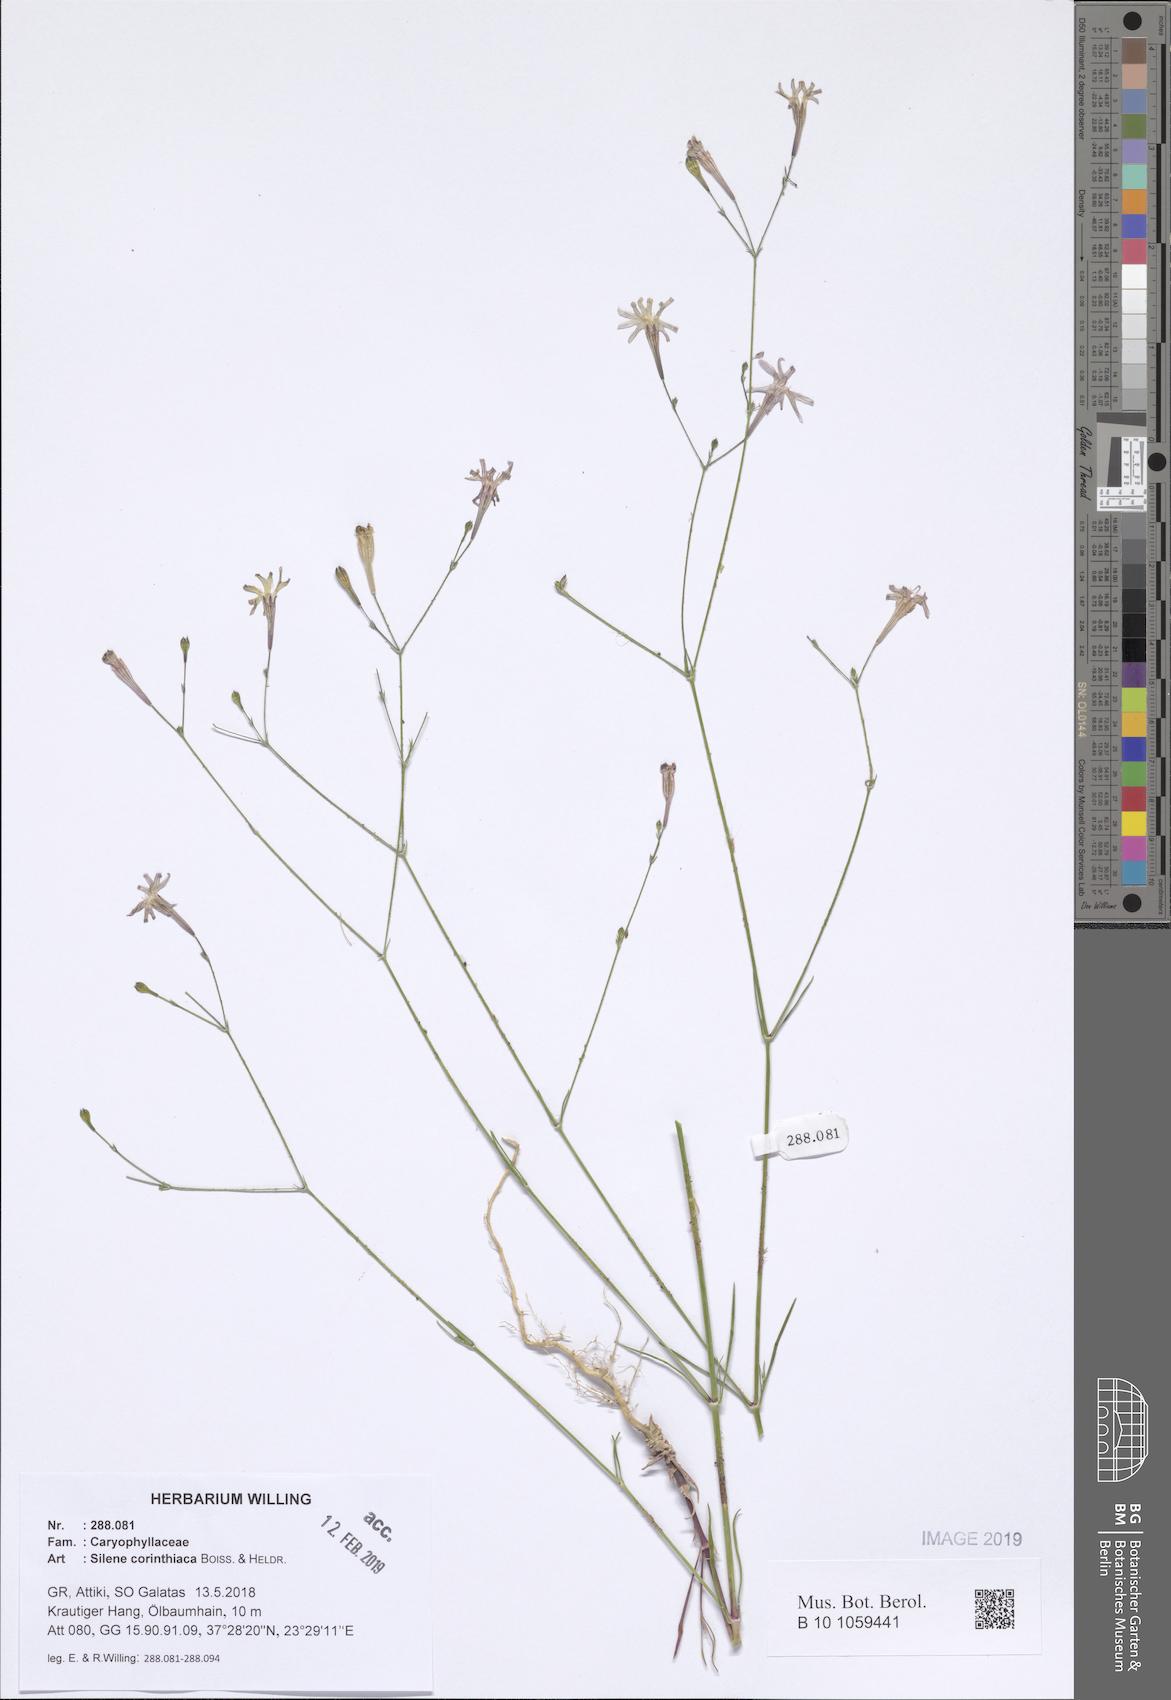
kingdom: Plantae
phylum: Tracheophyta
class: Magnoliopsida
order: Caryophyllales
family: Caryophyllaceae
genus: Silene
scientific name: Silene corinthiaca
